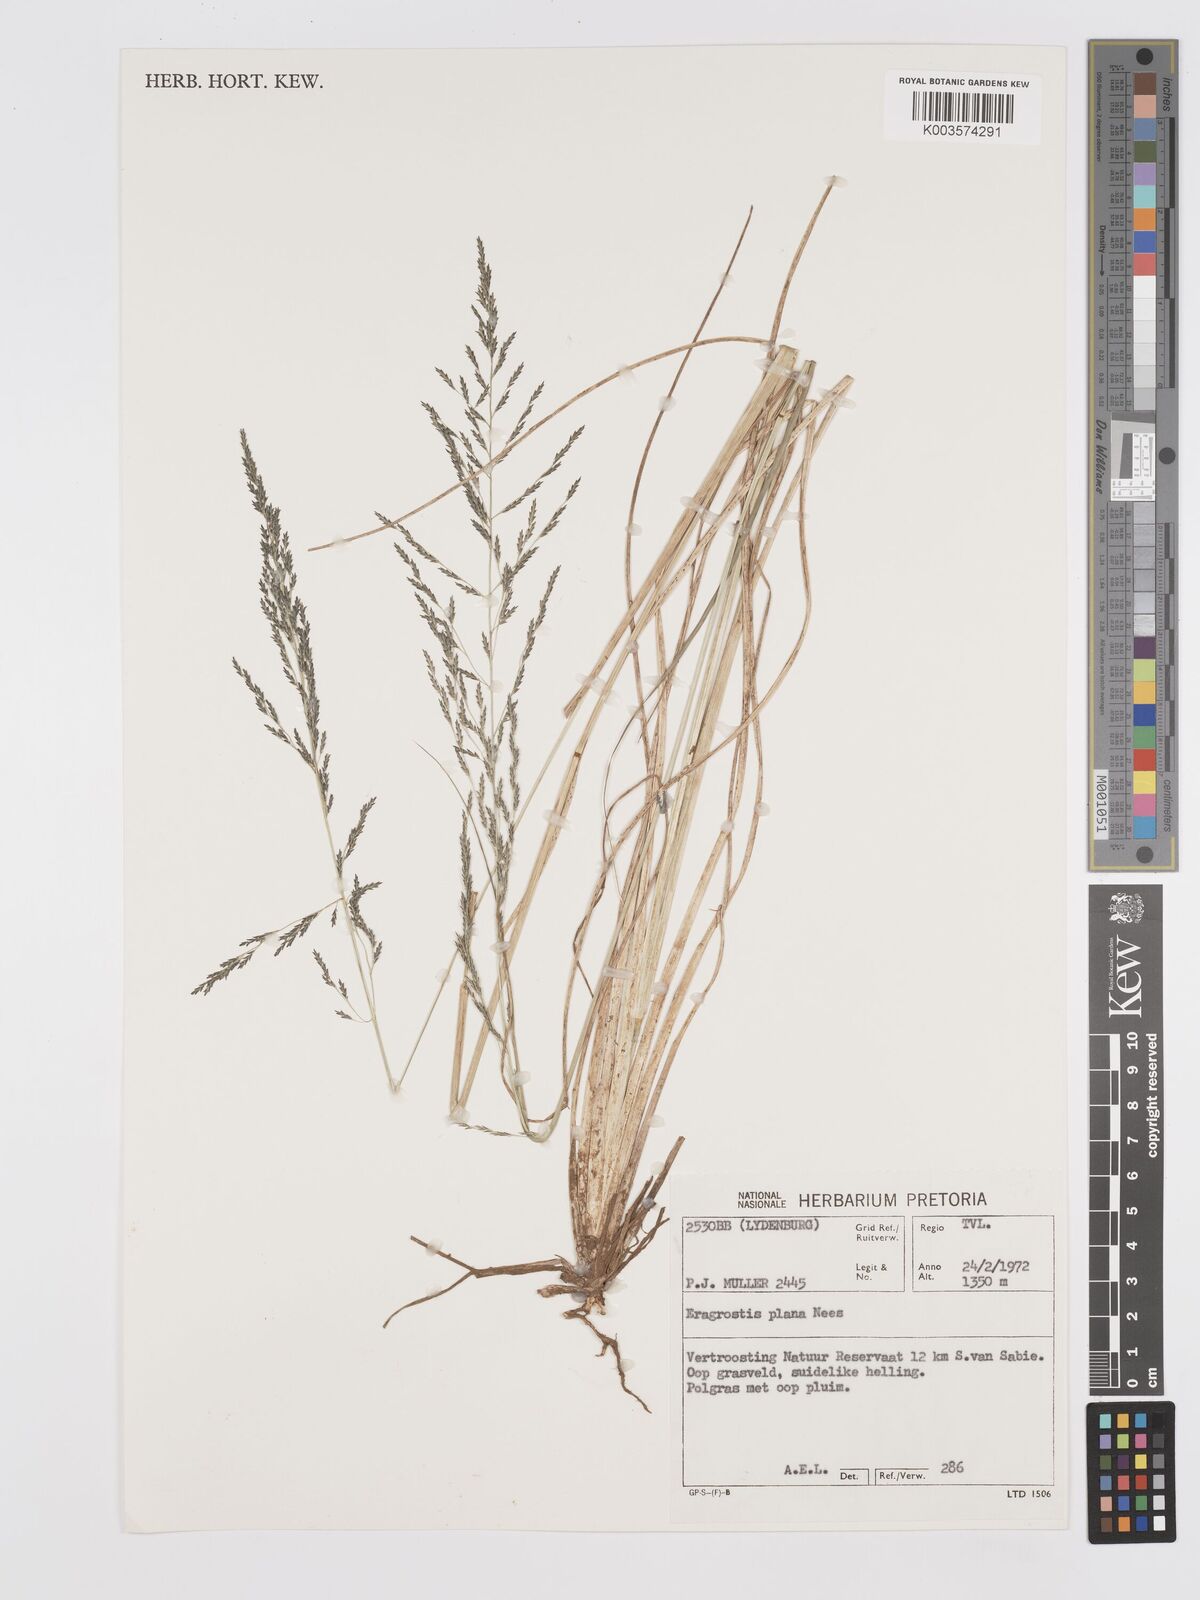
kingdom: Plantae
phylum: Tracheophyta
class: Liliopsida
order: Poales
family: Poaceae
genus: Eragrostis
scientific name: Eragrostis plana
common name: South african lovegrass
